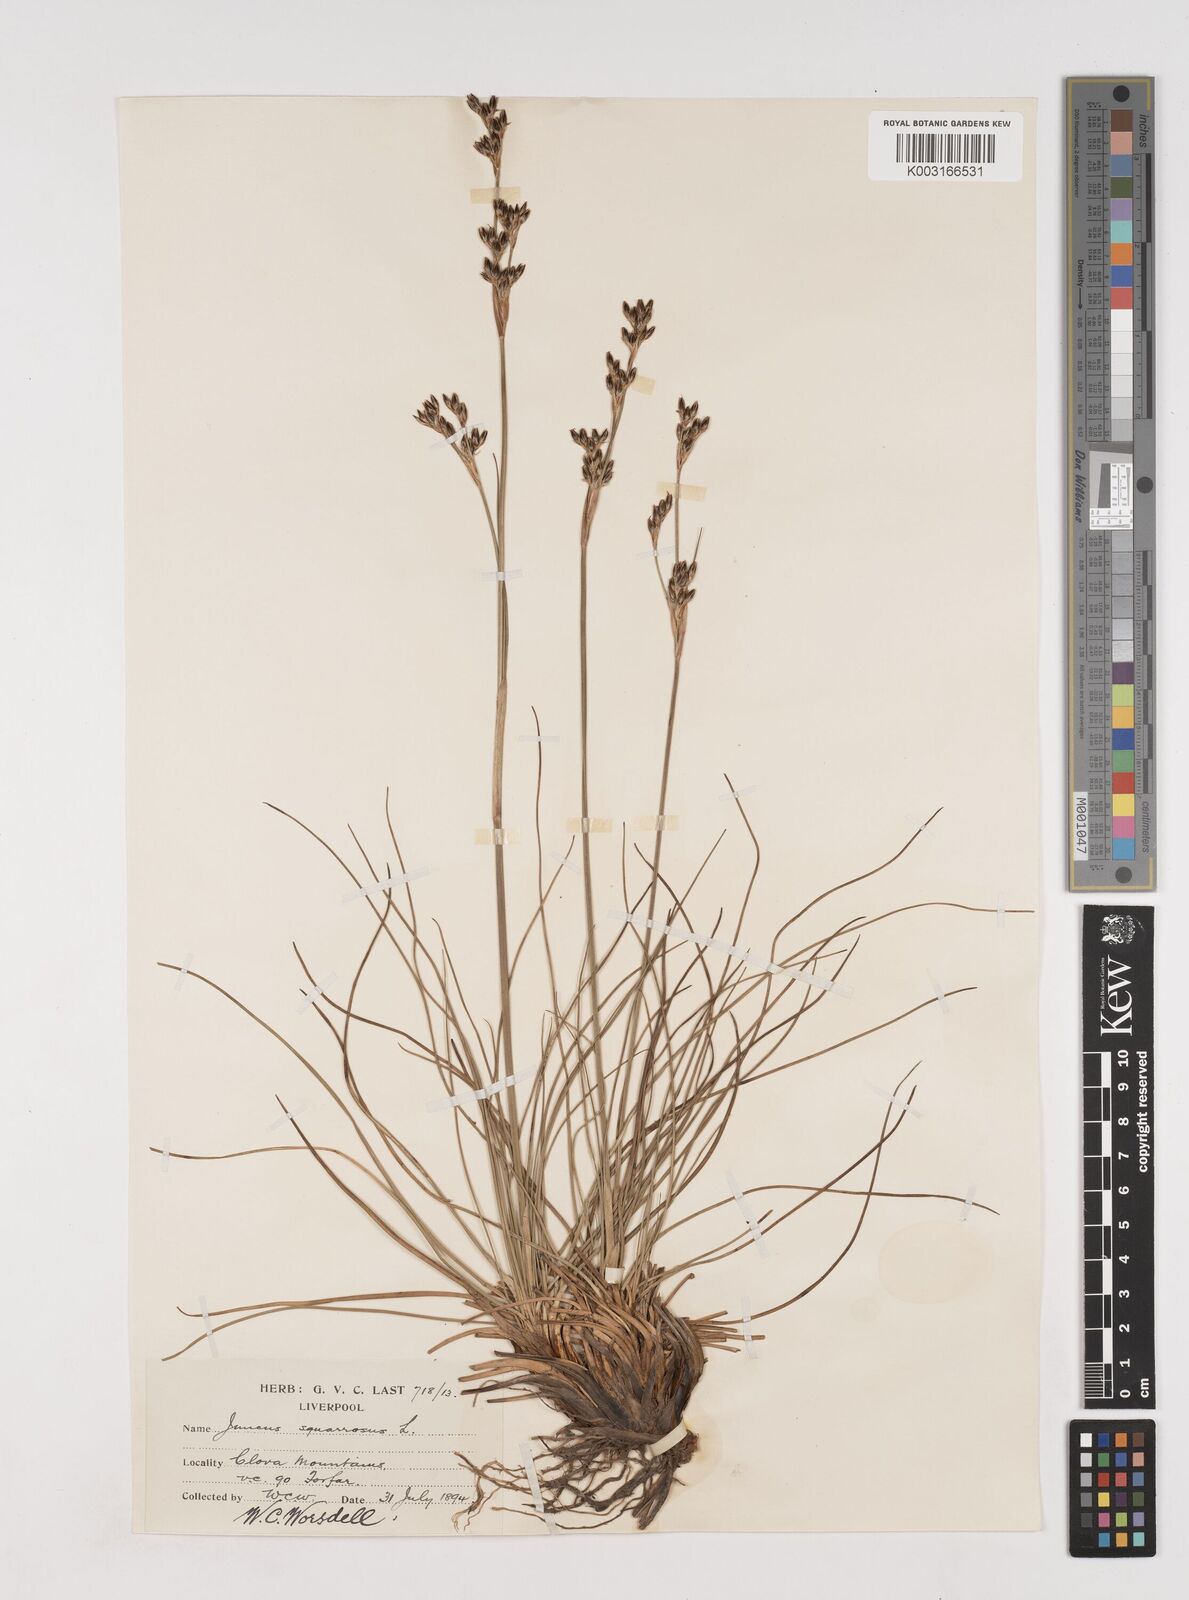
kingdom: Plantae
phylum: Tracheophyta
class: Liliopsida
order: Poales
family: Juncaceae
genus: Juncus
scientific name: Juncus squarrosus
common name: Heath rush
